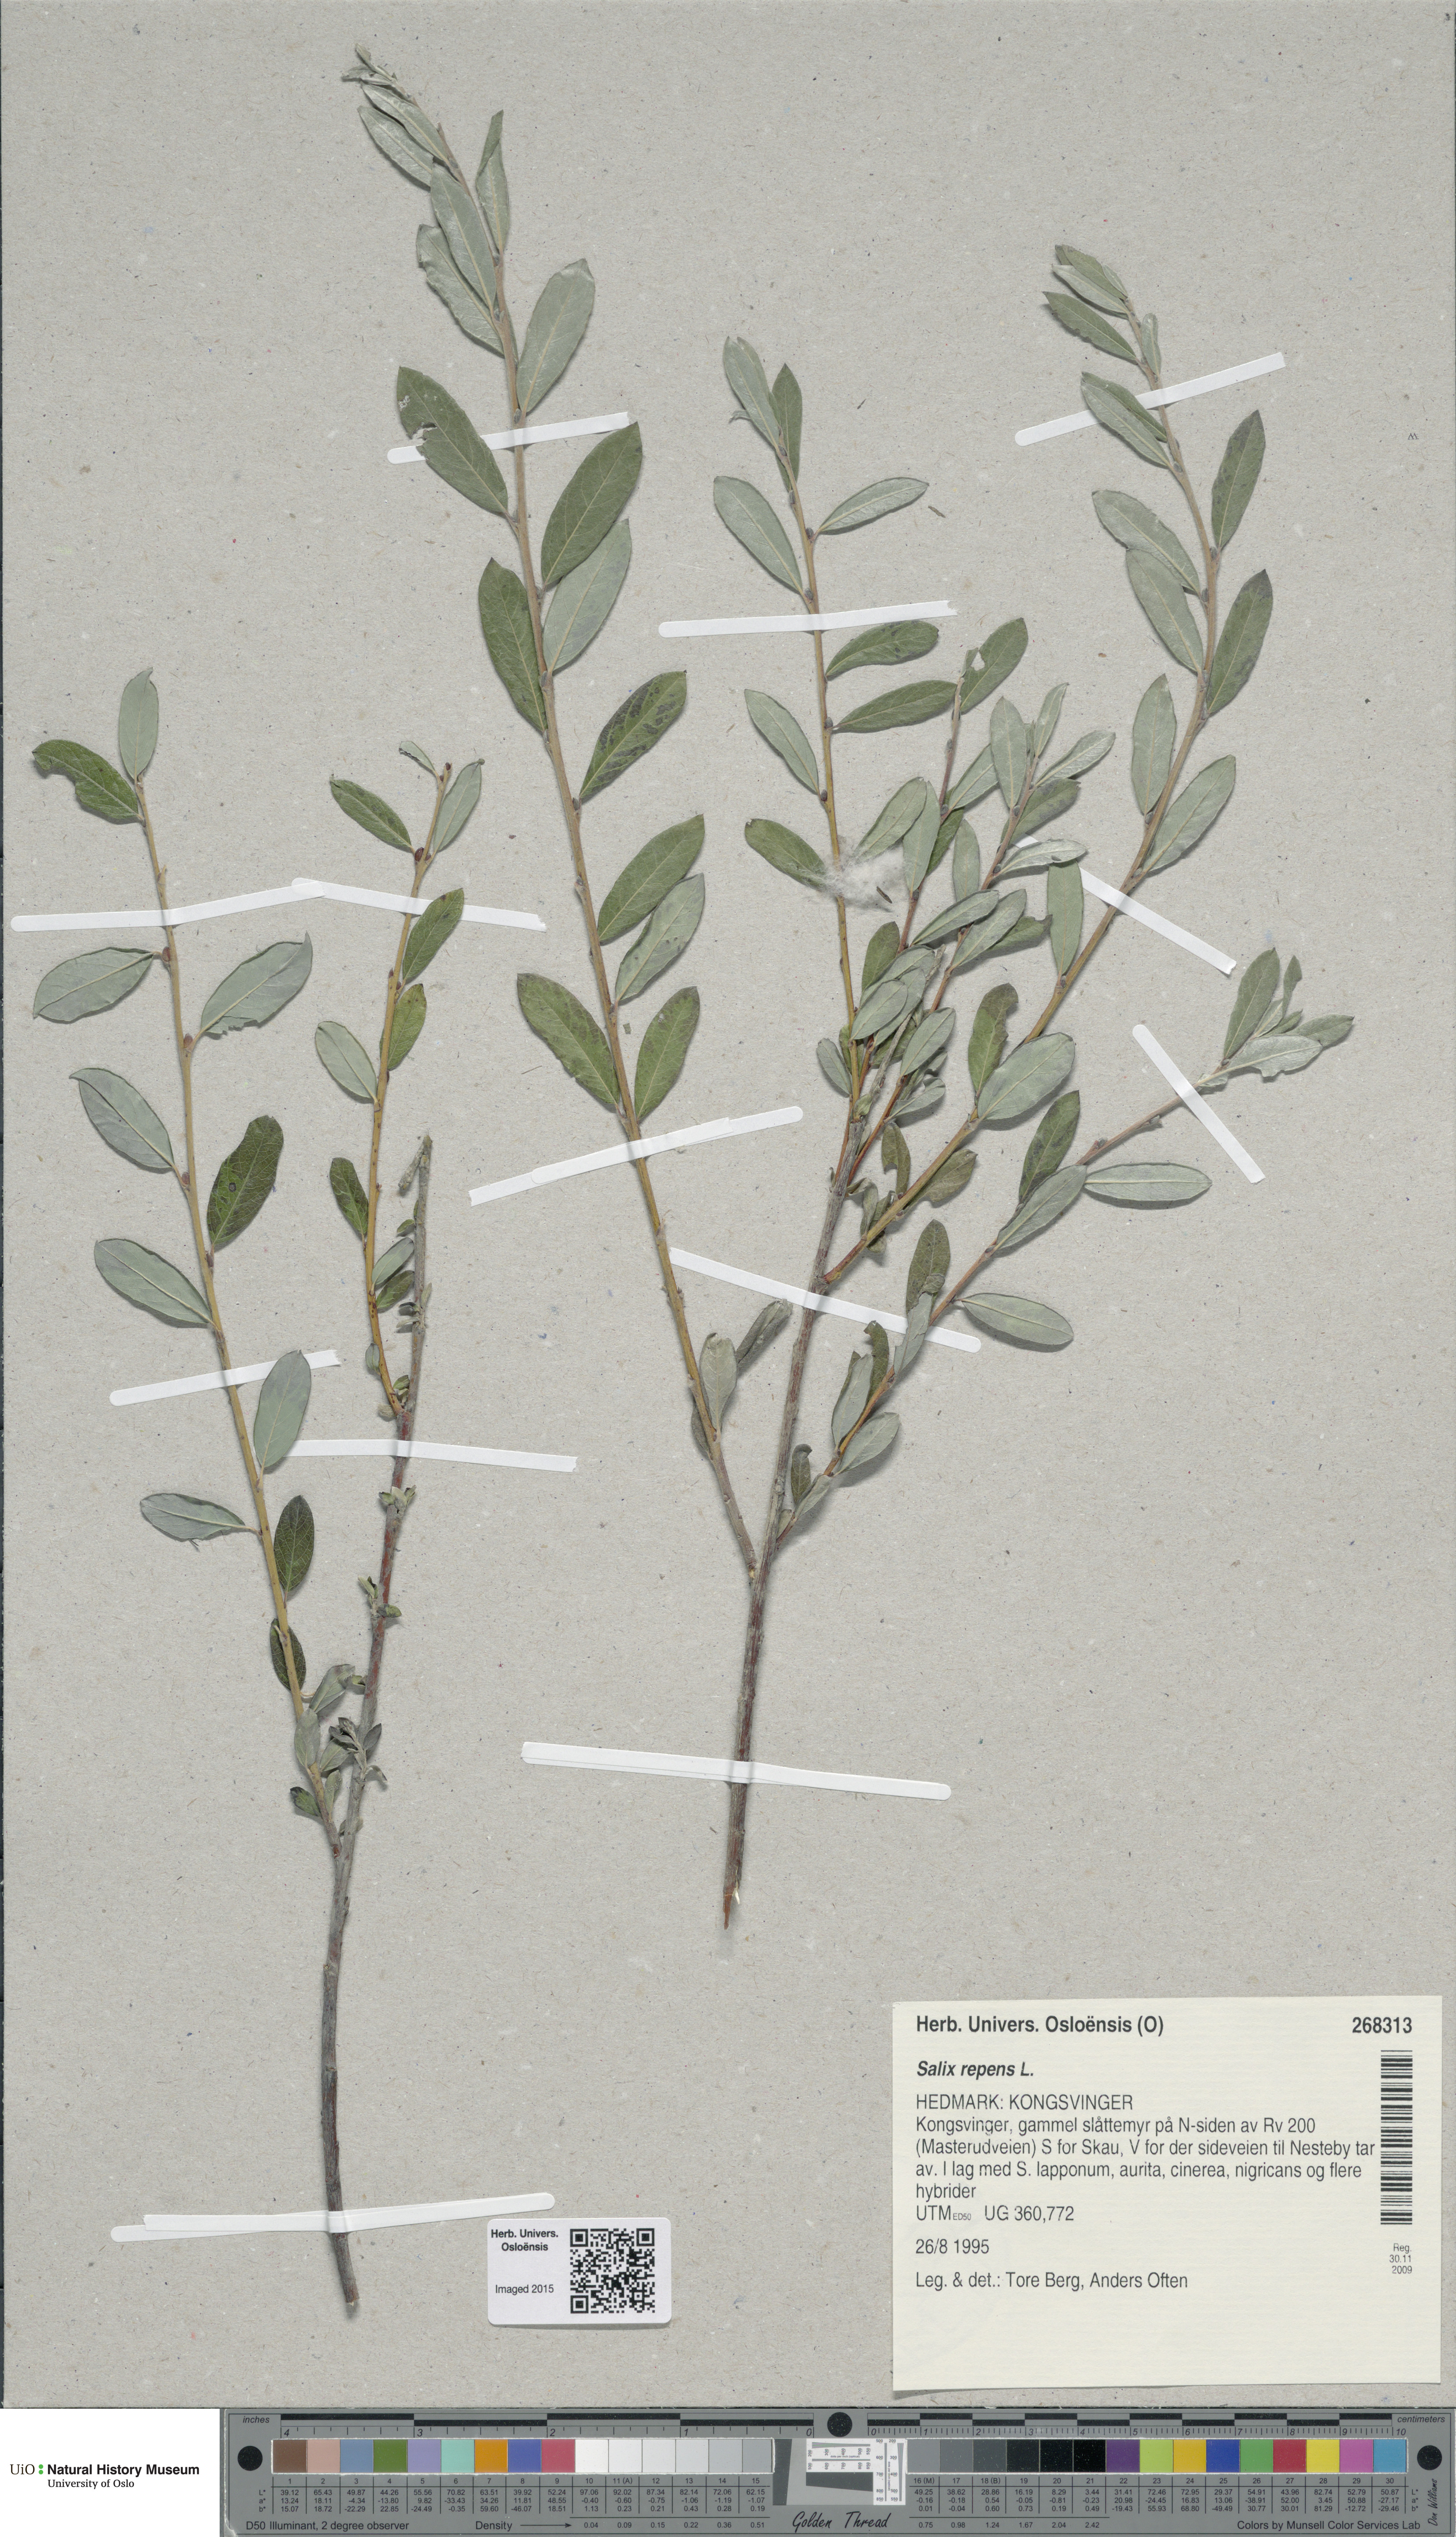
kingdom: Plantae
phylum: Tracheophyta
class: Magnoliopsida
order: Malpighiales
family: Salicaceae
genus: Salix
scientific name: Salix repens
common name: Creeping willow
